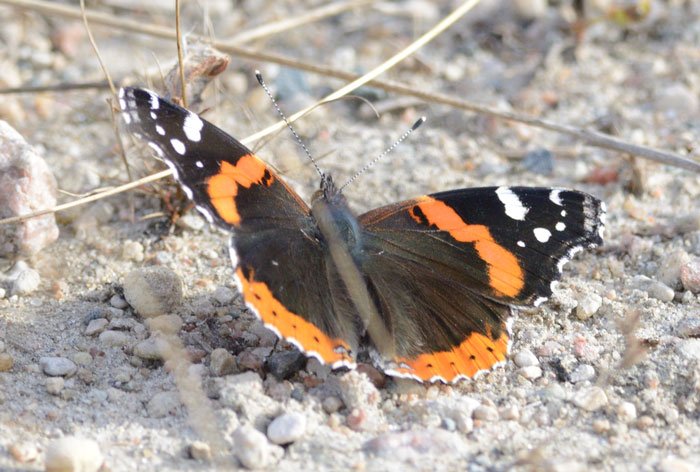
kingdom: Animalia
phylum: Arthropoda
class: Insecta
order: Lepidoptera
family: Nymphalidae
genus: Vanessa
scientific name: Vanessa atalanta
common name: Red Admiral
